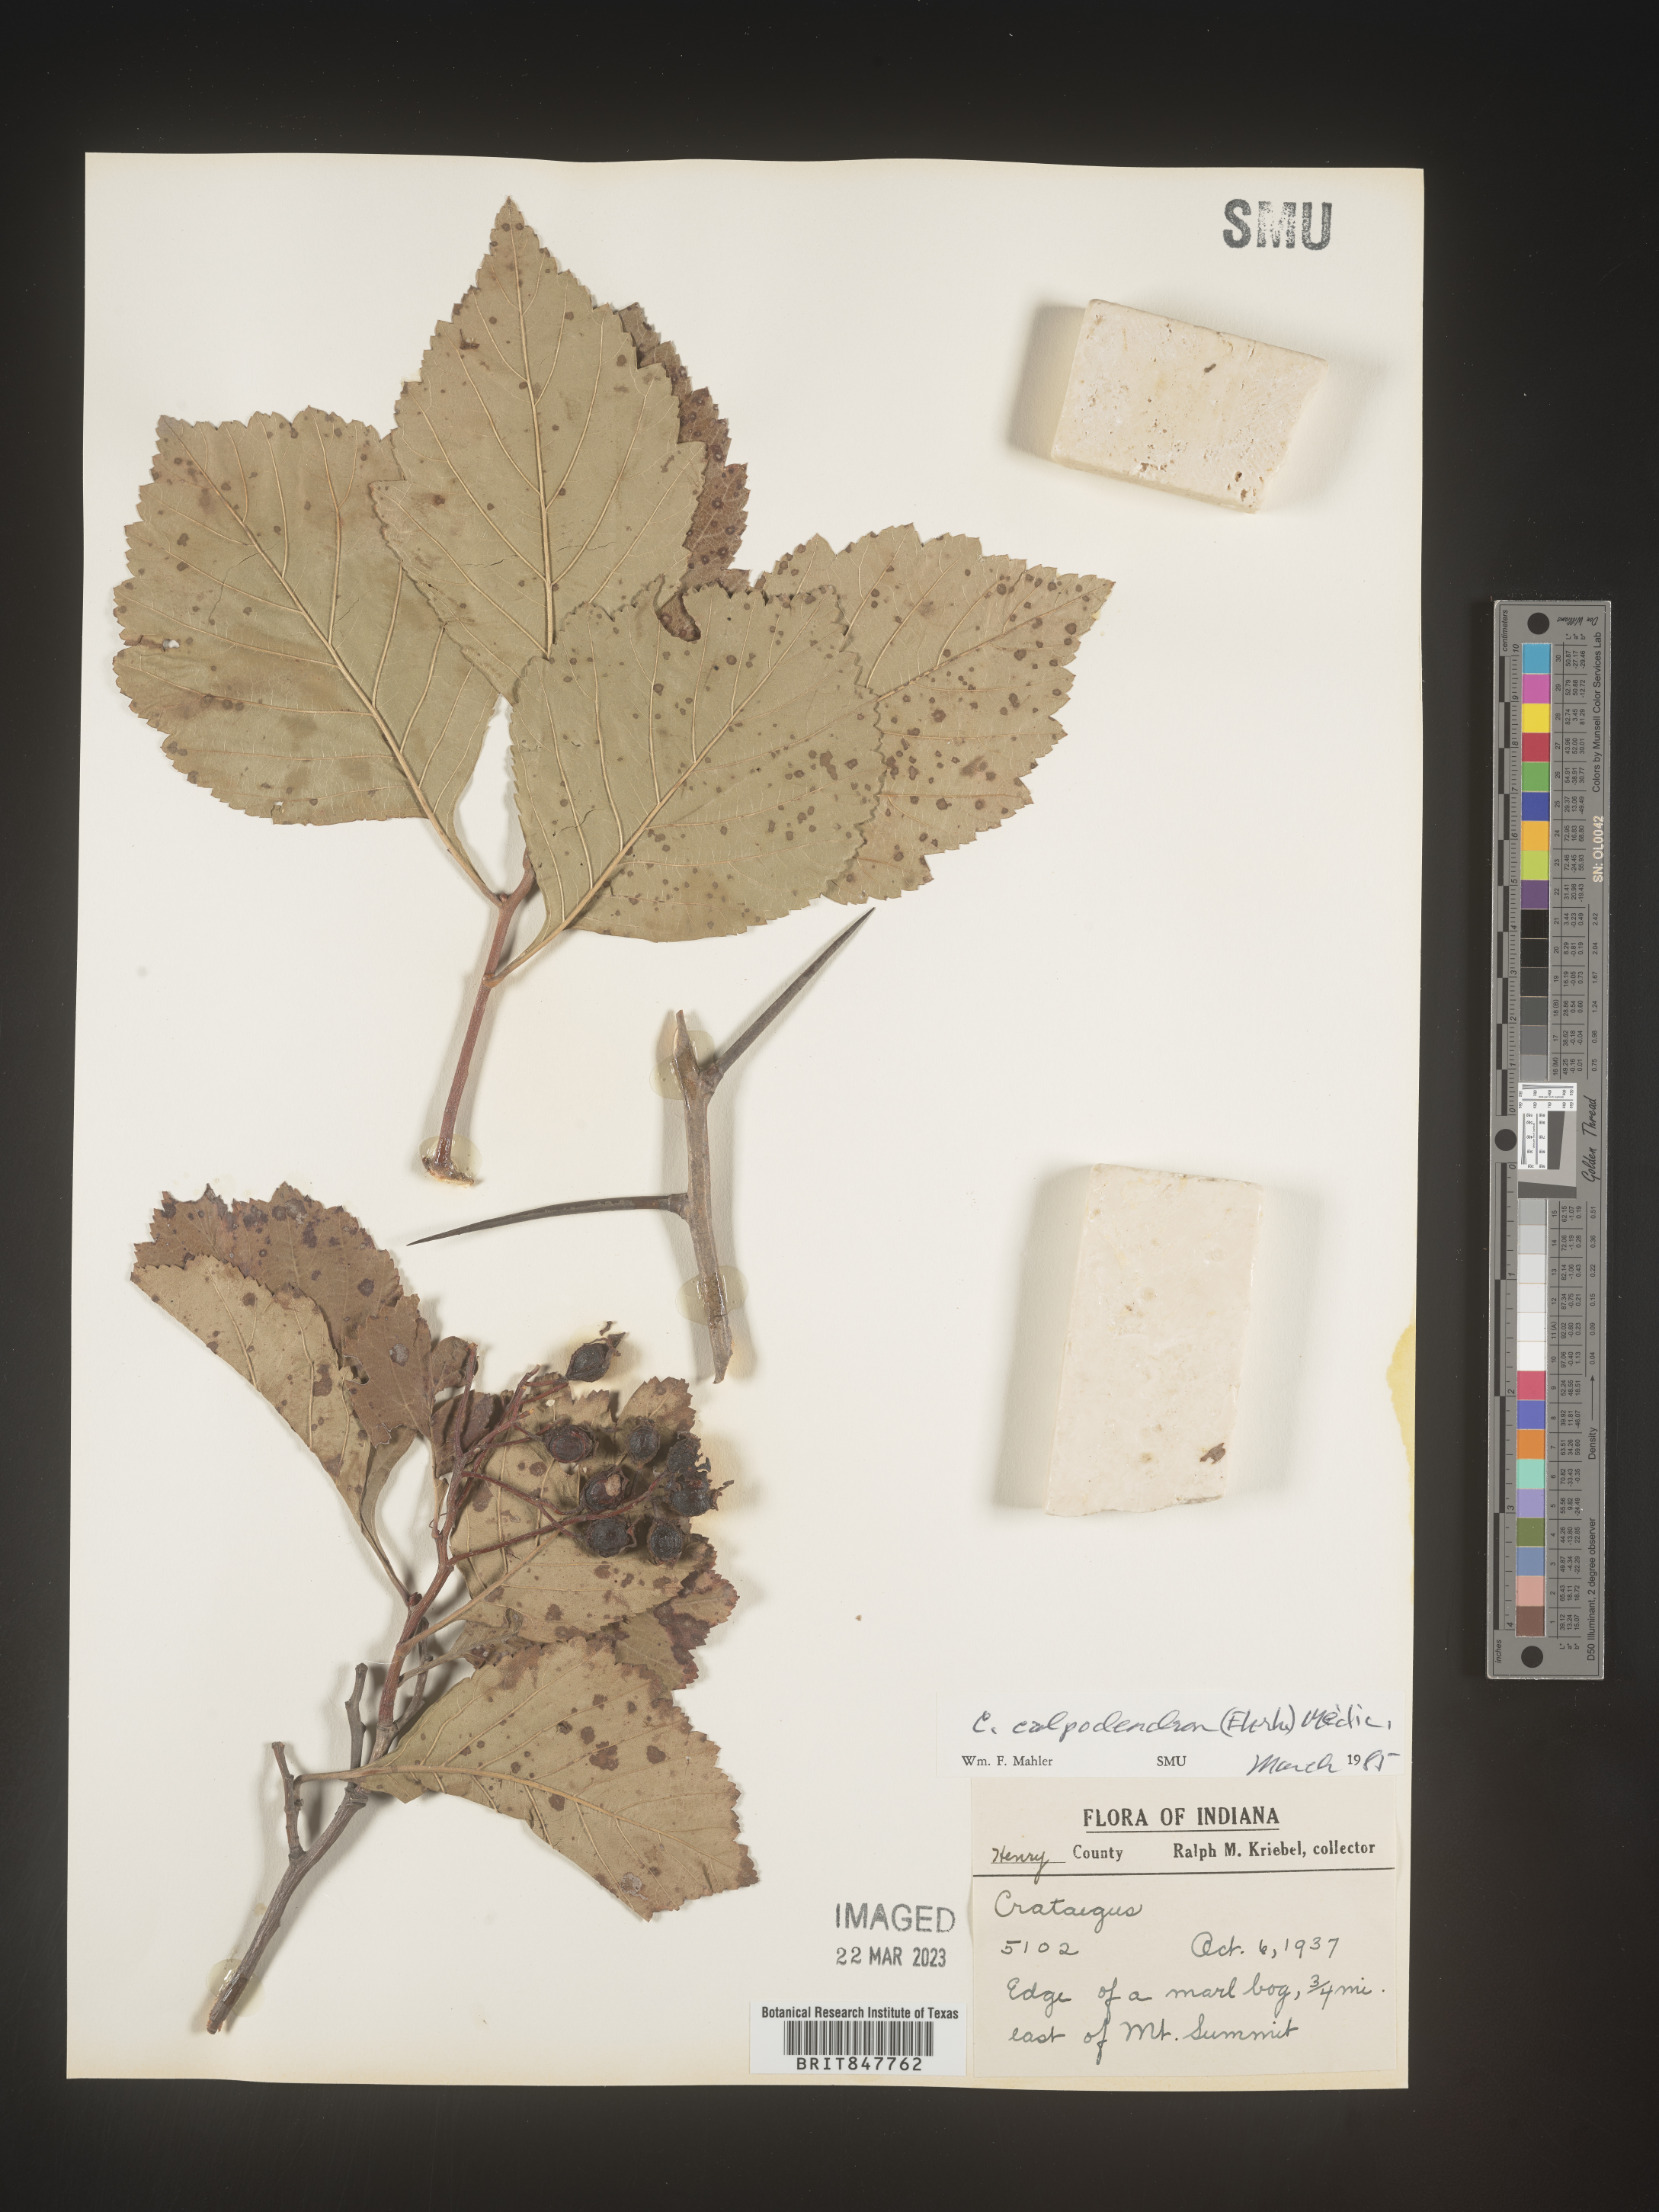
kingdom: Plantae
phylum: Tracheophyta
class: Magnoliopsida
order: Rosales
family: Rosaceae
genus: Crataegus
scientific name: Crataegus calpodendron
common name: Pear hawthorn
